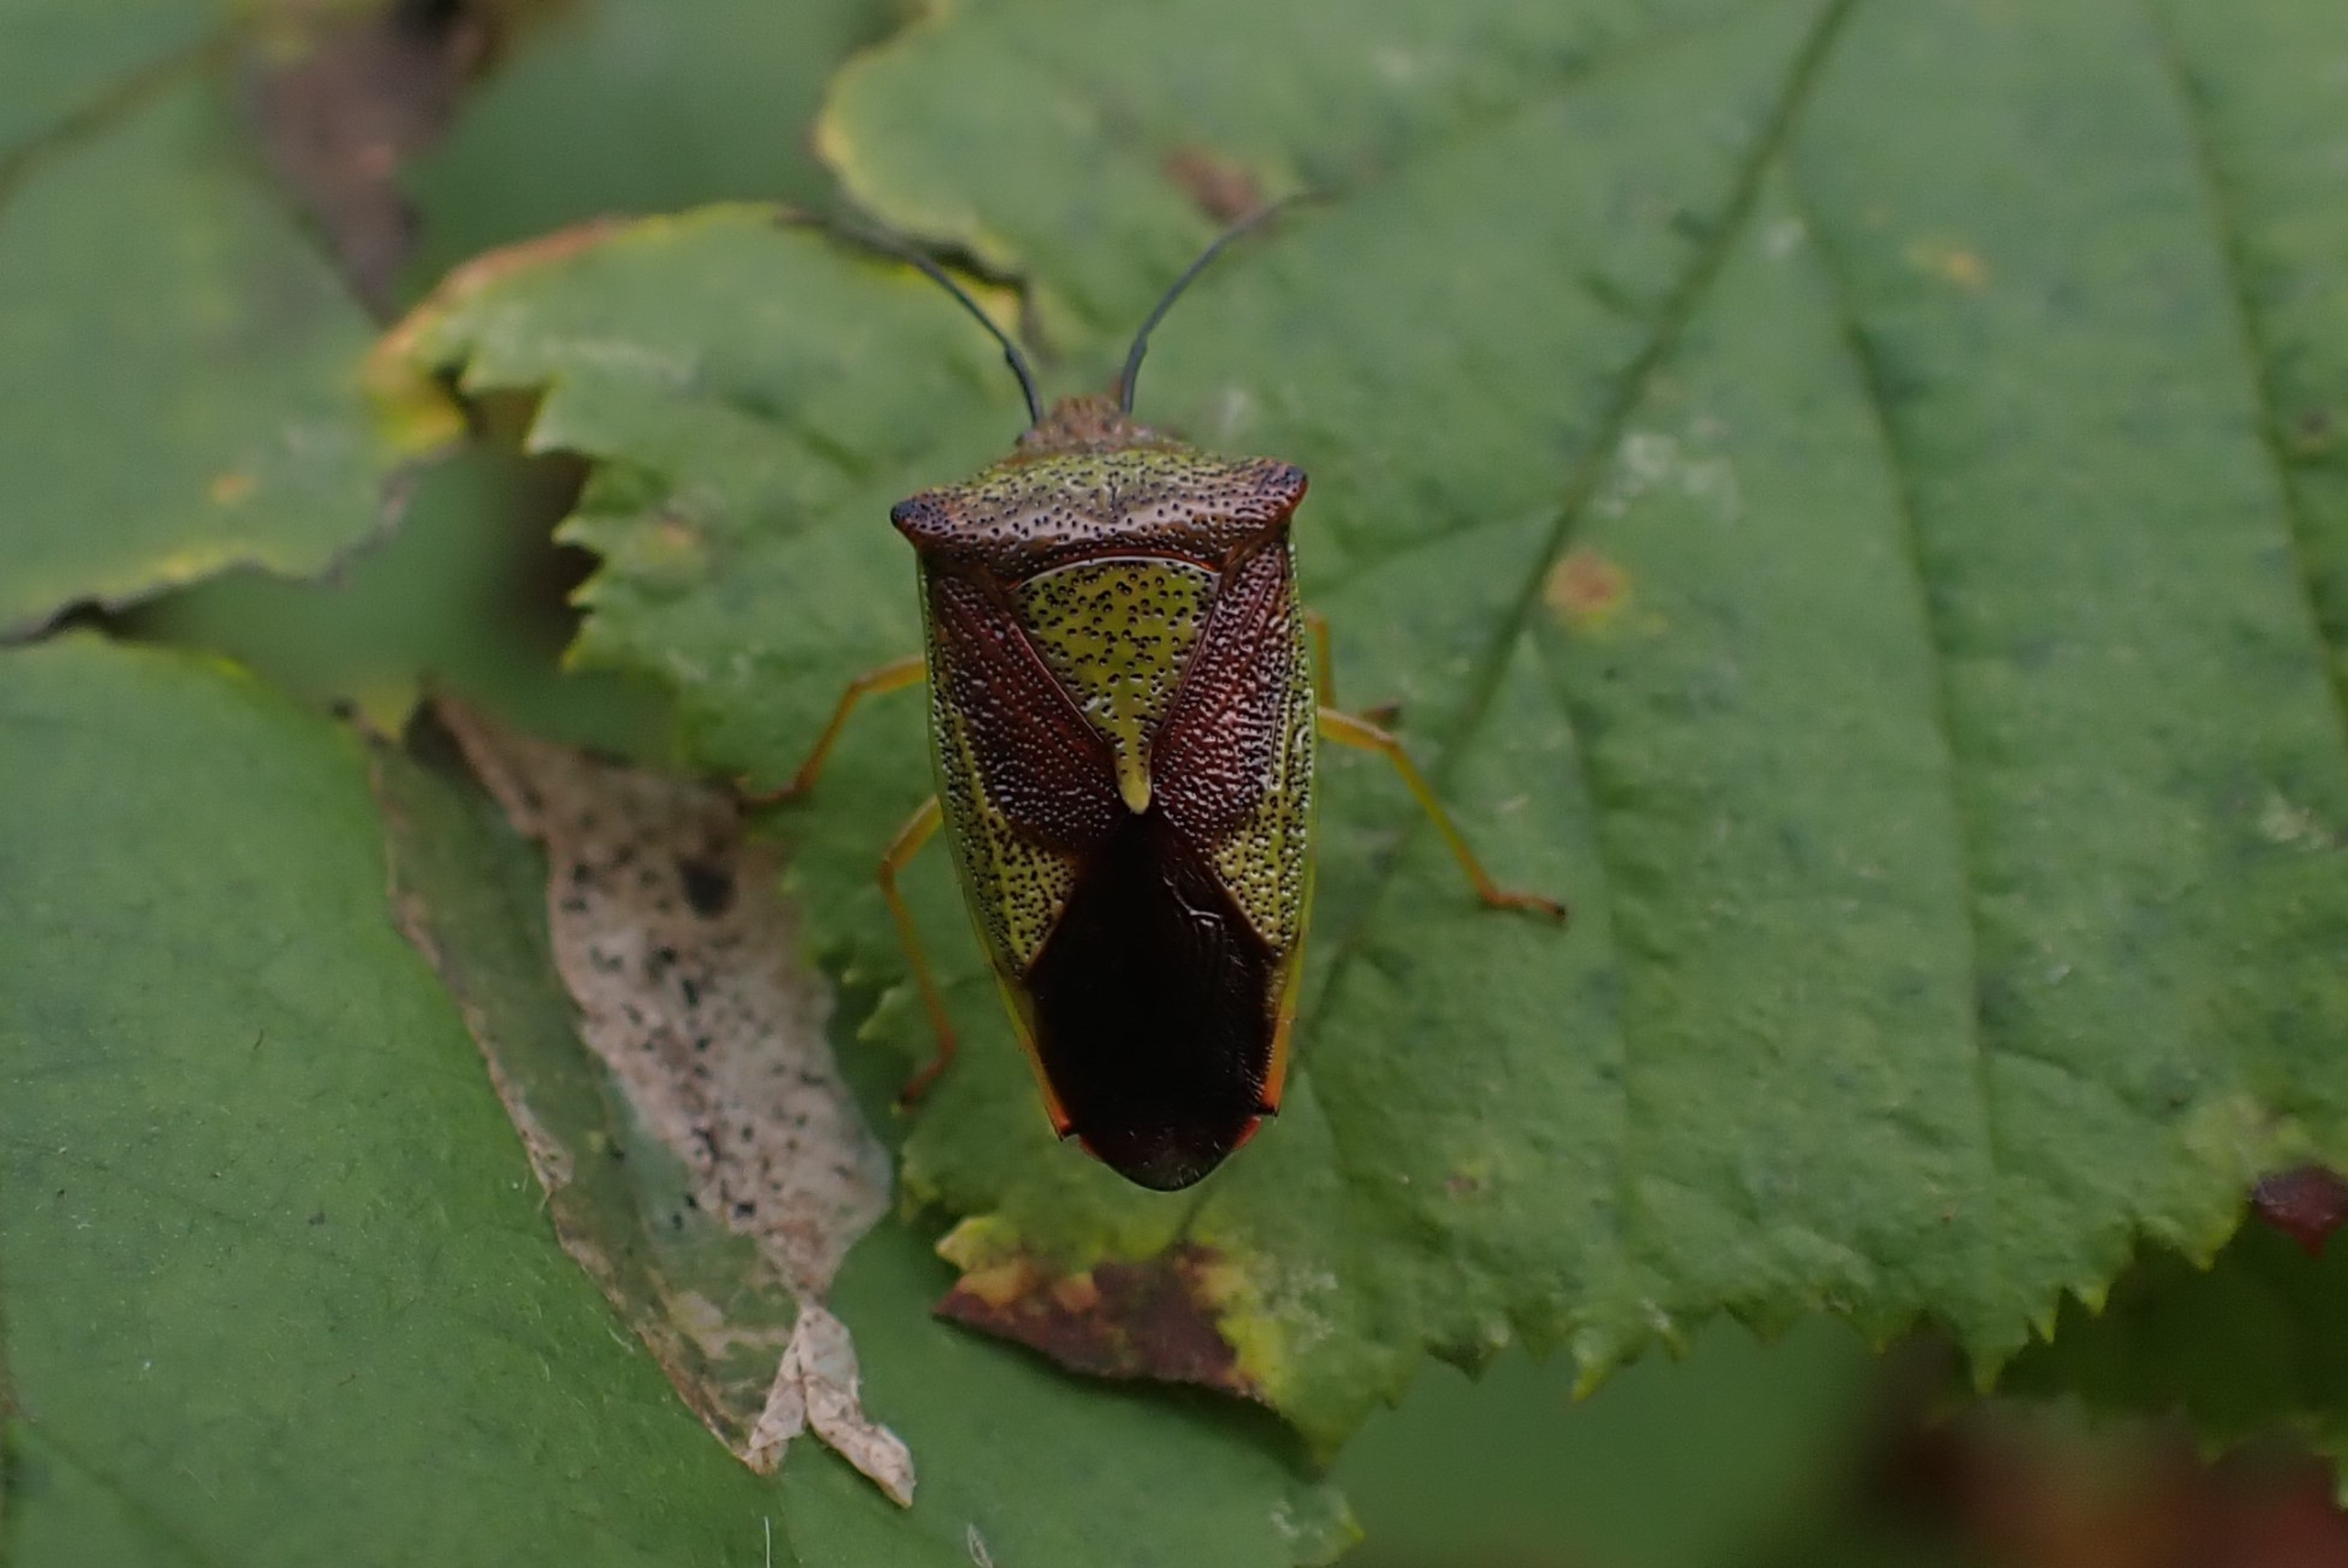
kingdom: Animalia
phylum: Arthropoda
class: Insecta
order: Hemiptera
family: Acanthosomatidae
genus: Acanthosoma
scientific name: Acanthosoma haemorrhoidale
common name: Stor løvtæge
